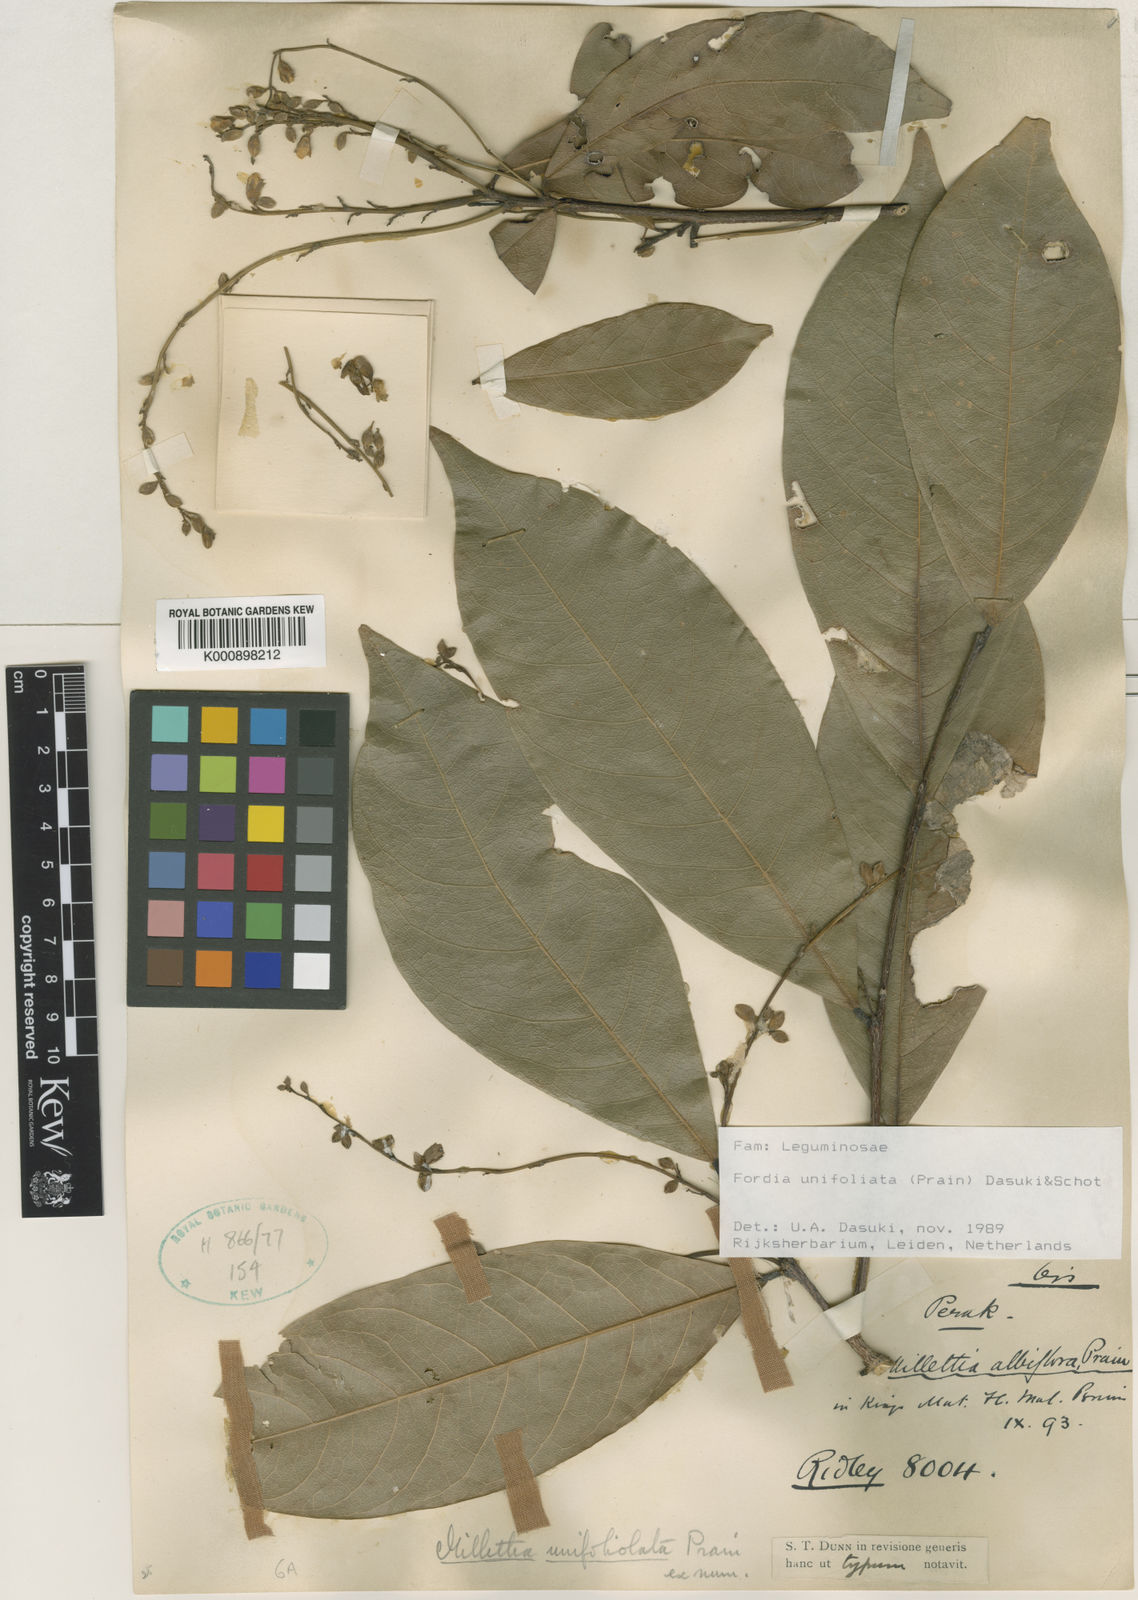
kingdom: Plantae
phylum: Tracheophyta
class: Magnoliopsida
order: Fabales
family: Fabaceae
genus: Imbralyx
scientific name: Imbralyx unifoliatus
